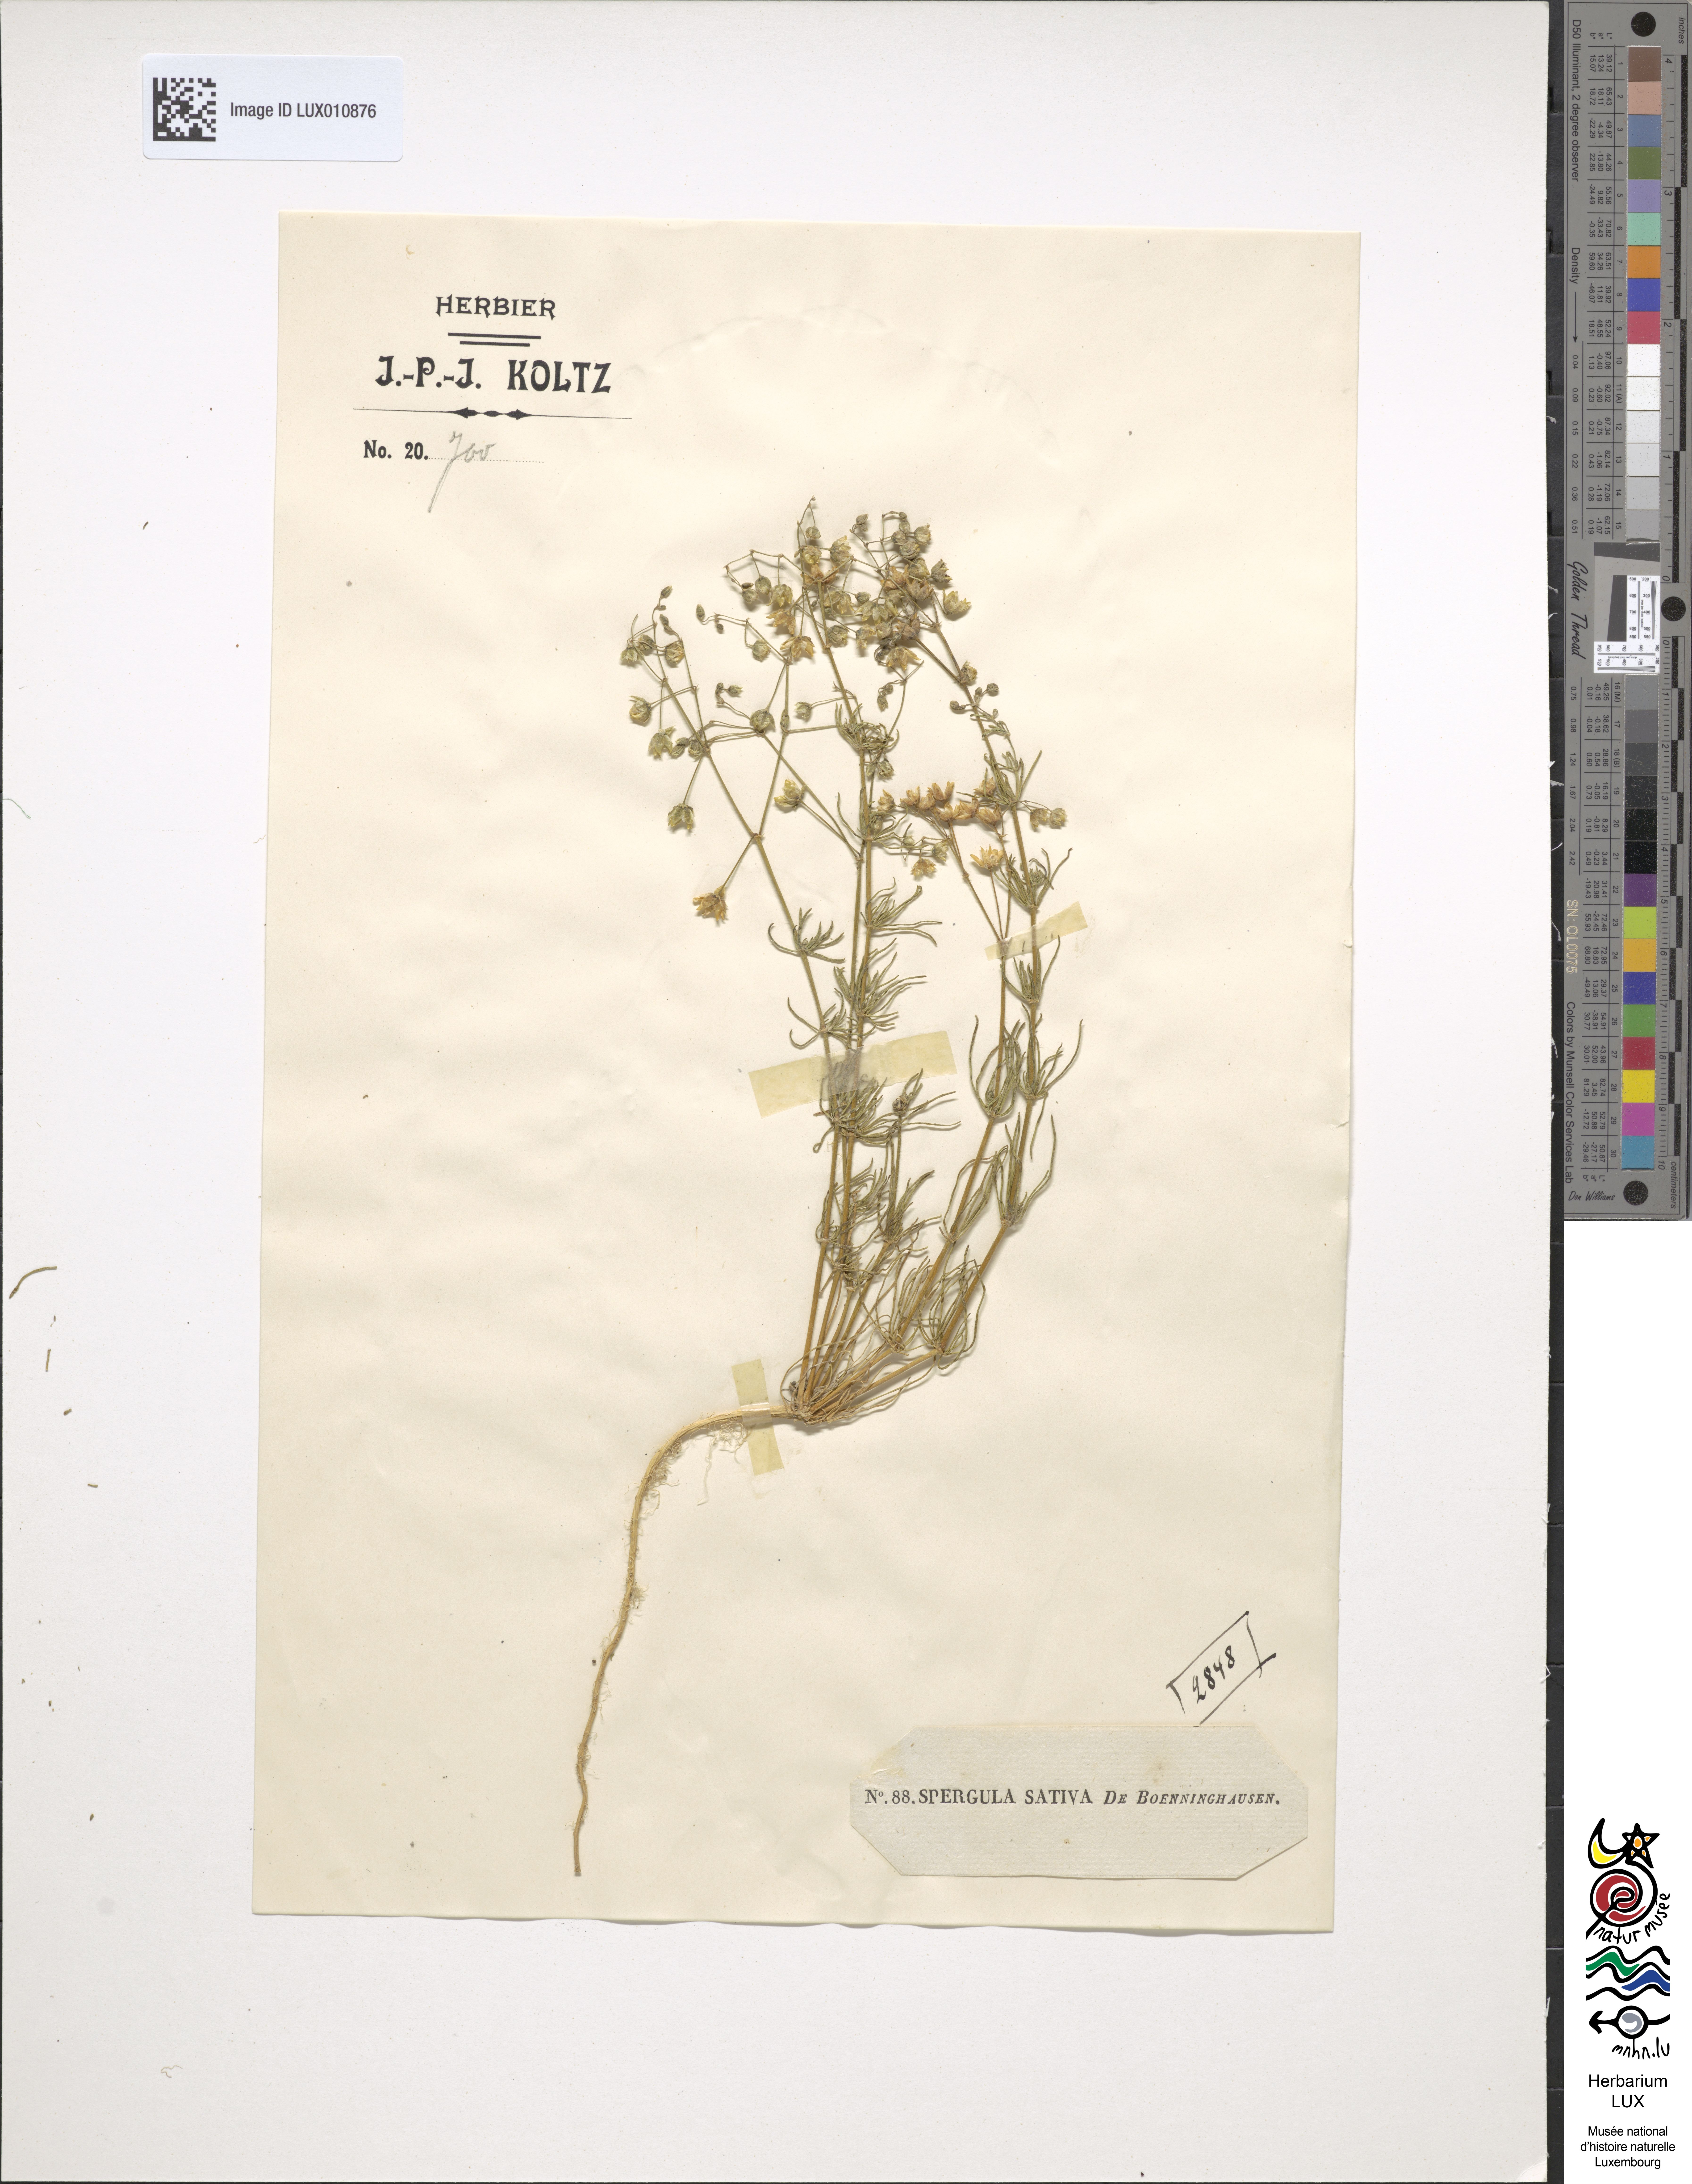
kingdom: Plantae
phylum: Tracheophyta
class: Magnoliopsida
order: Caryophyllales
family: Caryophyllaceae
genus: Spergula
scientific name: Spergula arvensis
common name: Corn spurrey
